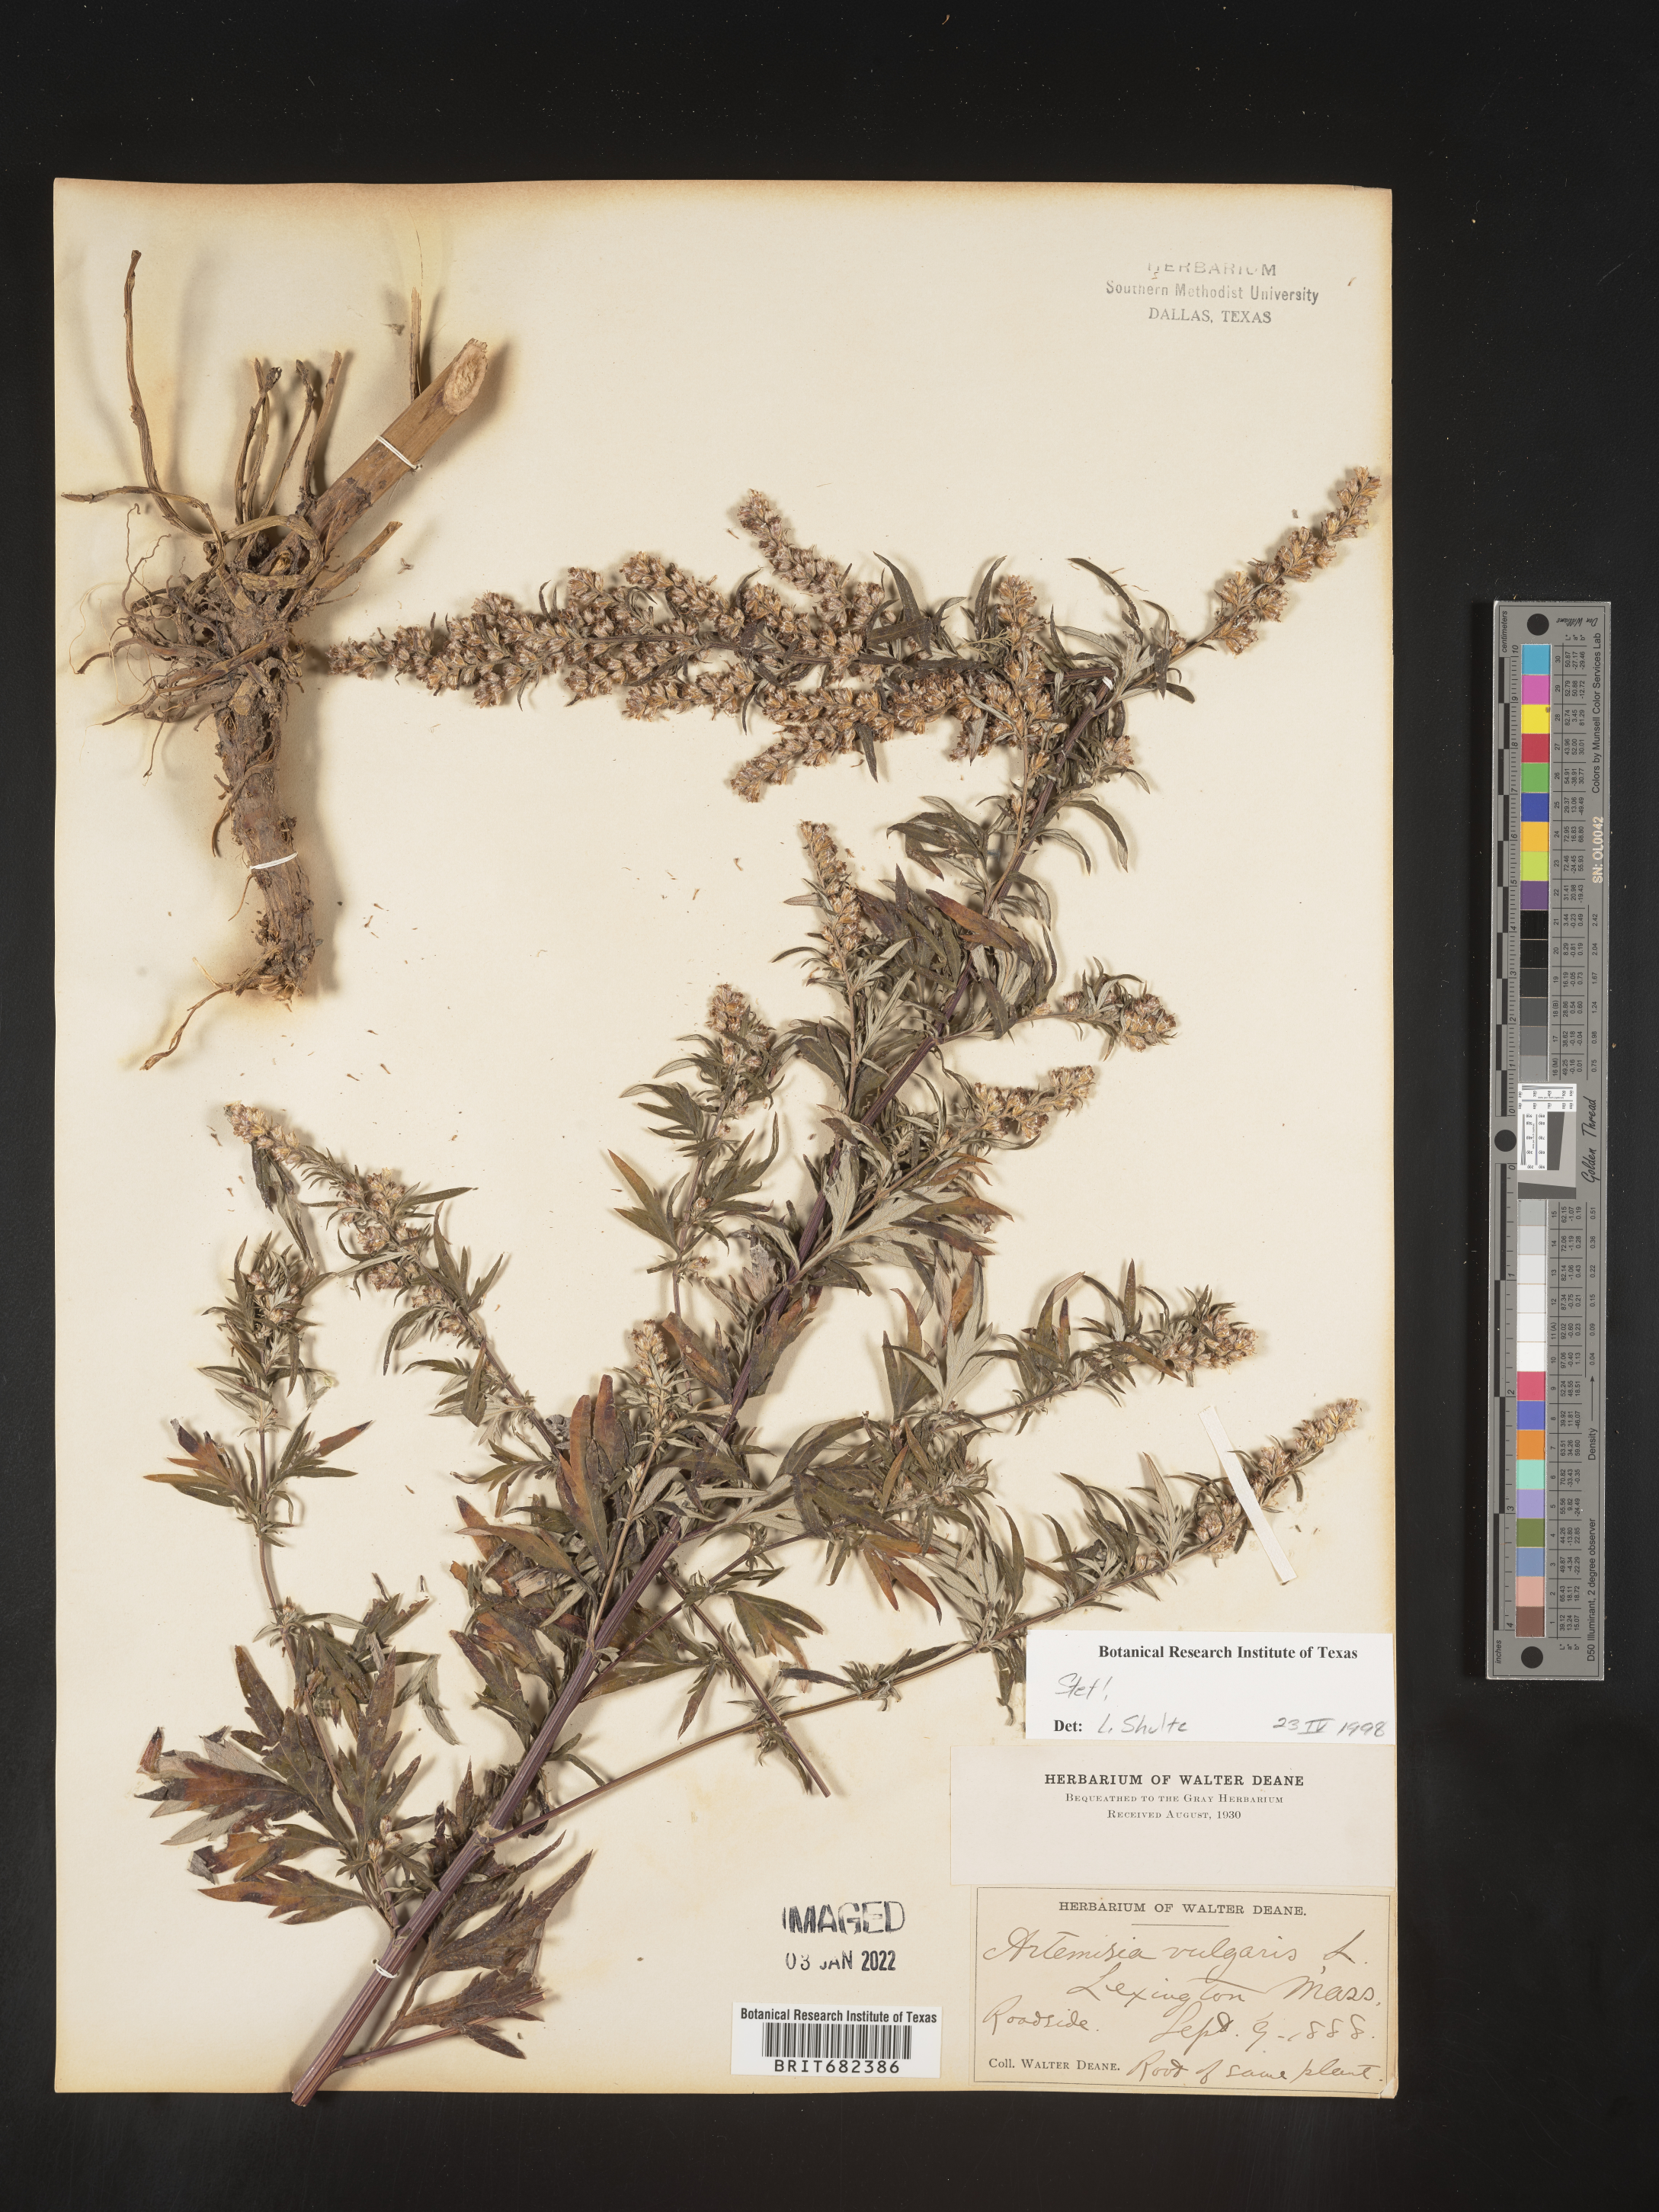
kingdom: Plantae
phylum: Tracheophyta
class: Magnoliopsida
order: Asterales
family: Asteraceae
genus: Artemisia
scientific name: Artemisia vulgaris
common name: Mugwort
